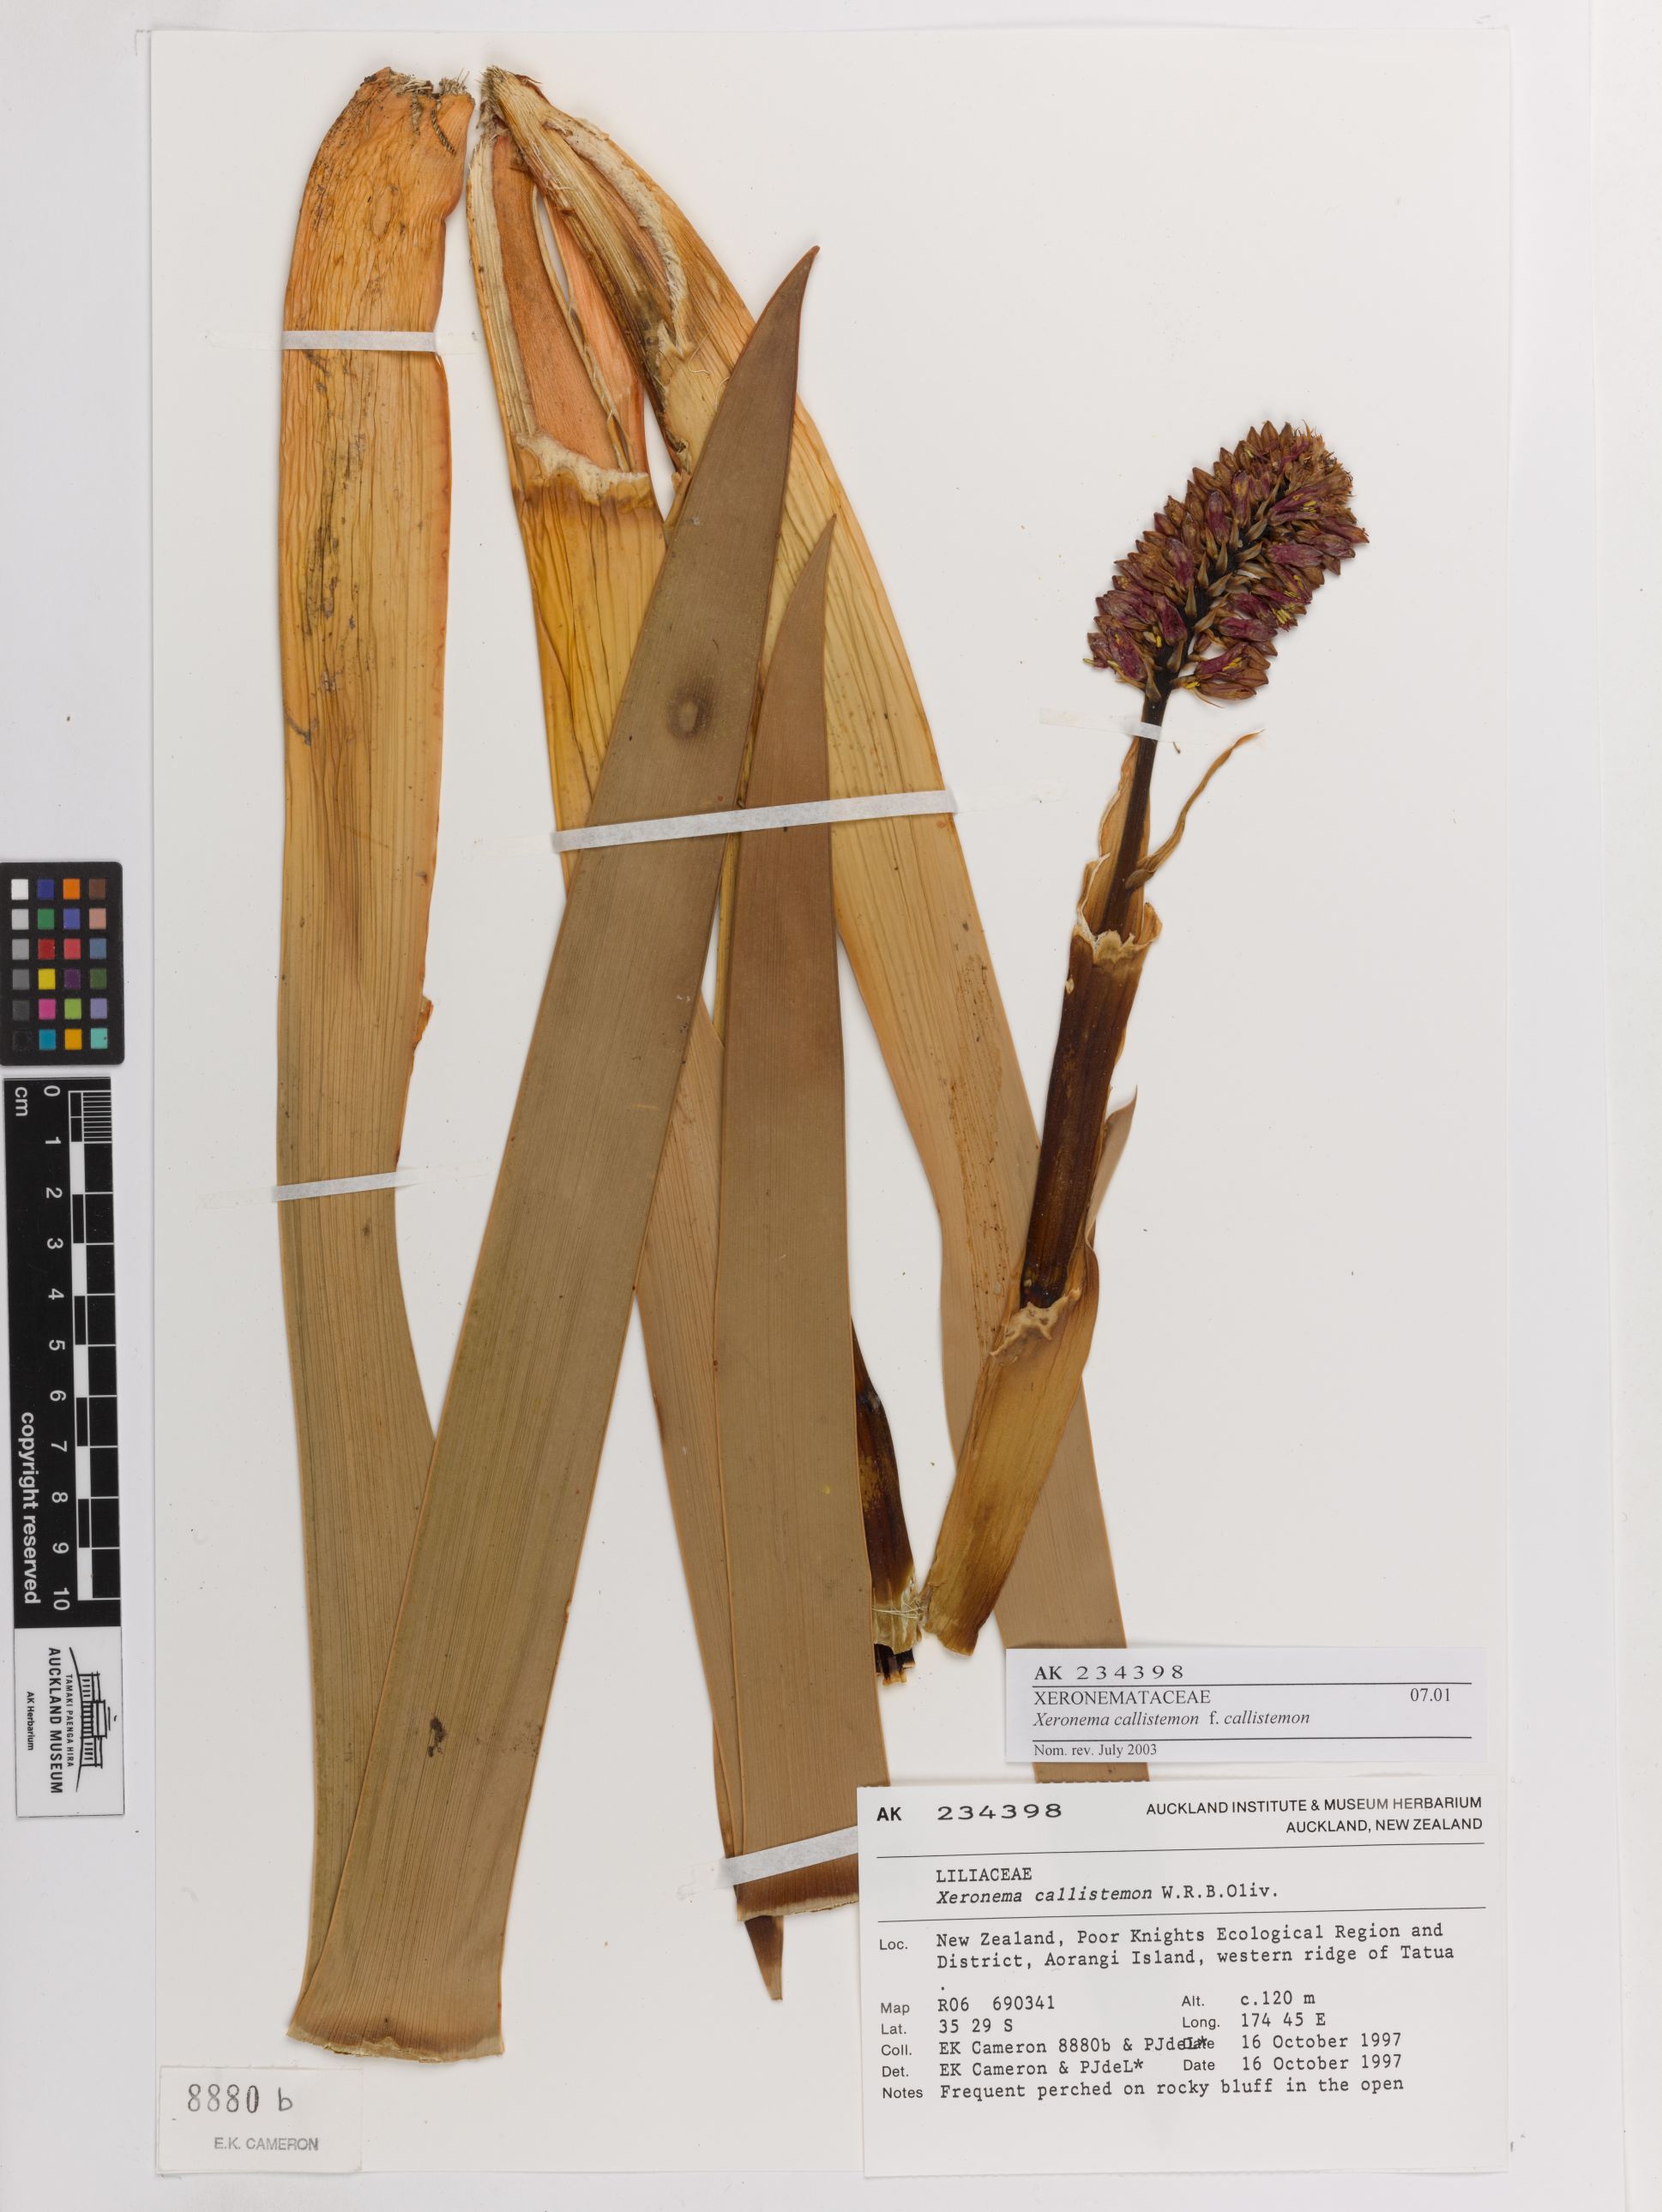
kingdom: Plantae
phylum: Tracheophyta
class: Liliopsida
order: Asparagales
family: Xeronemataceae
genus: Xeronema
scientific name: Xeronema callistemon
